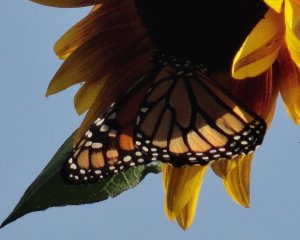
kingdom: Animalia
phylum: Arthropoda
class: Insecta
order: Lepidoptera
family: Nymphalidae
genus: Danaus
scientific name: Danaus plexippus
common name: Monarch
